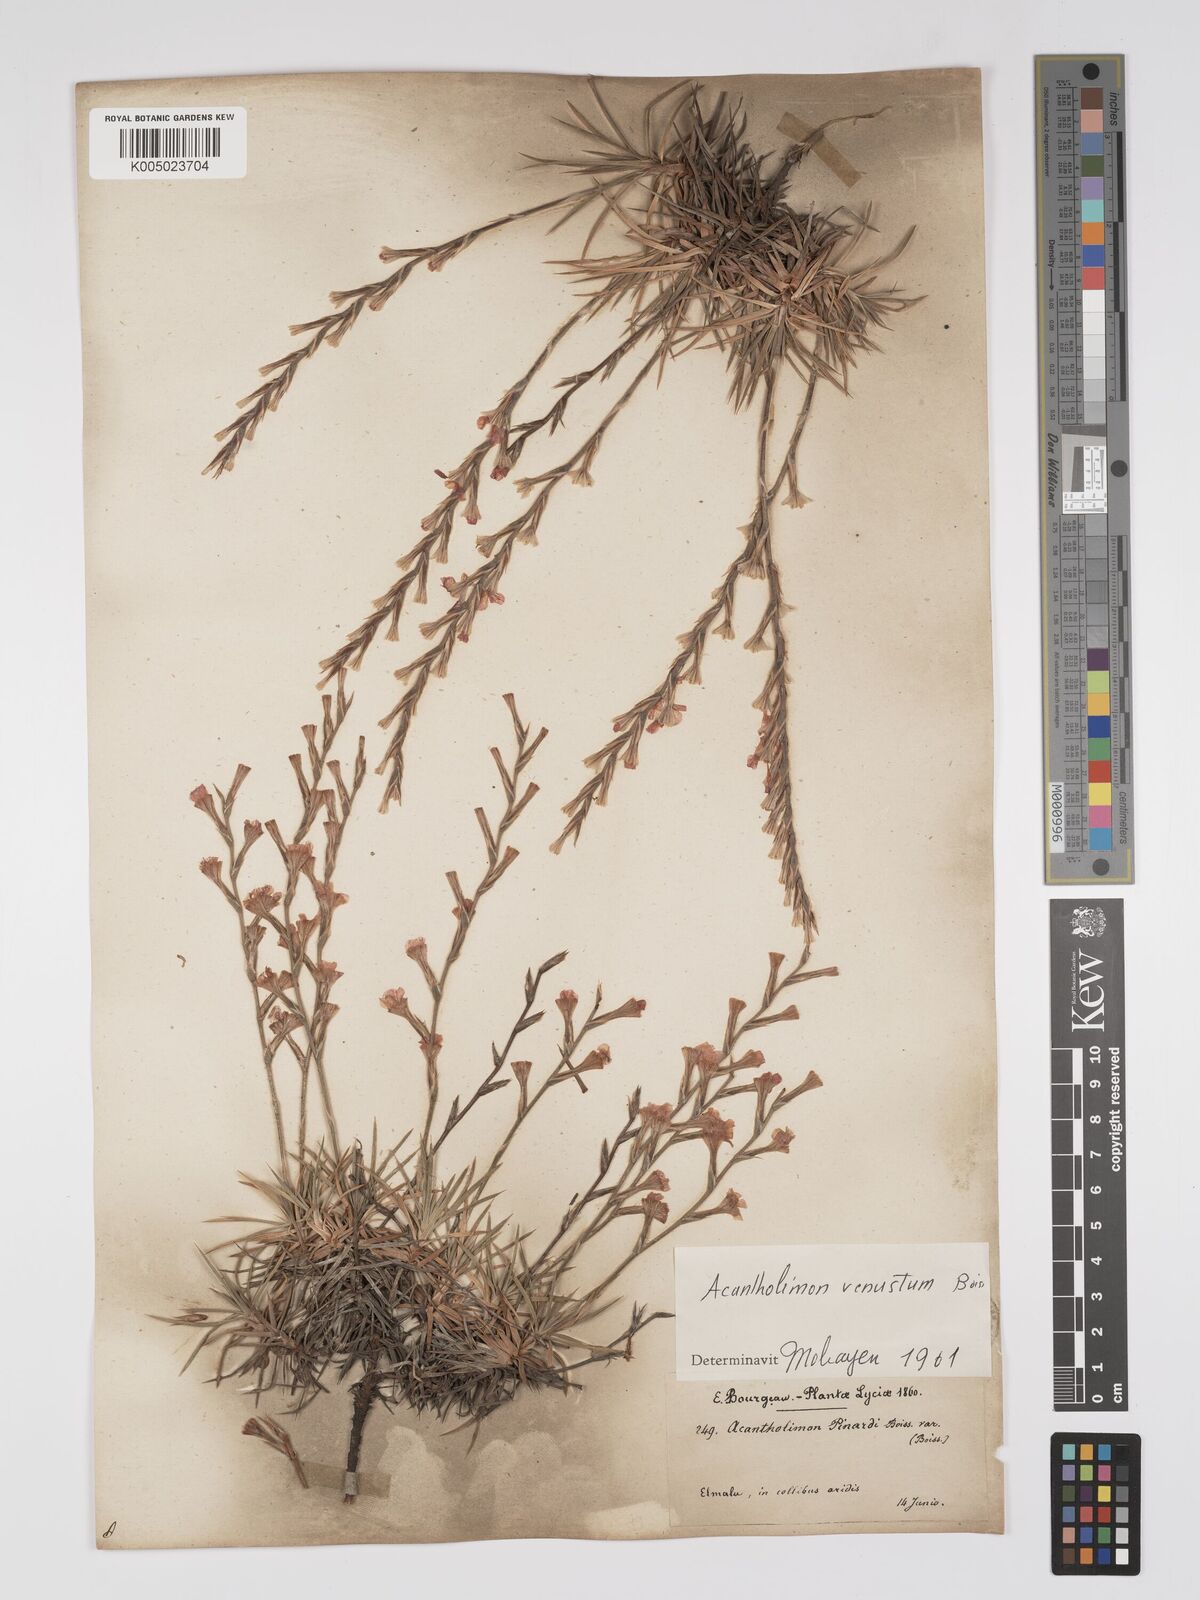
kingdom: Plantae
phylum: Tracheophyta
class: Magnoliopsida
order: Caryophyllales
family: Plumbaginaceae
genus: Acantholimon
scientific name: Acantholimon venustum
